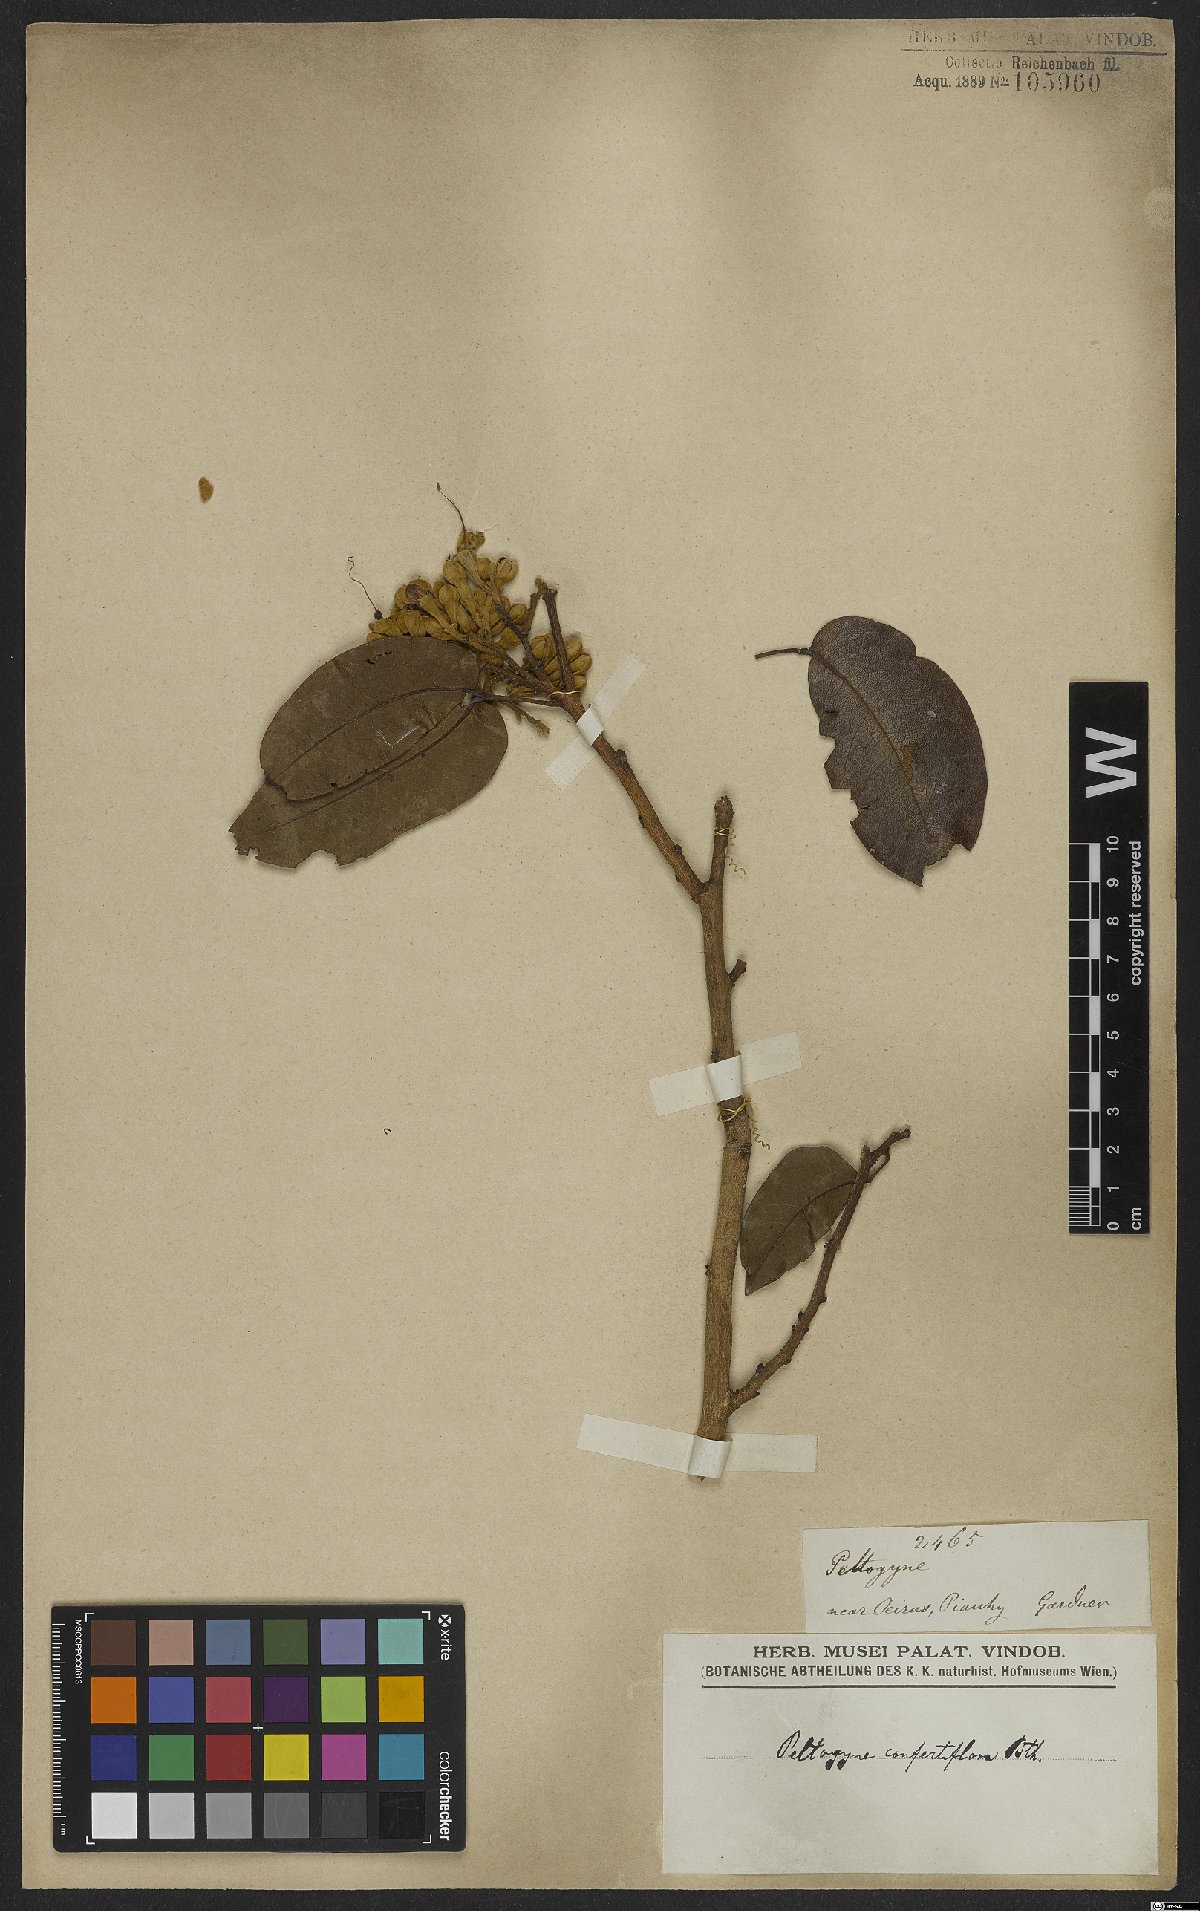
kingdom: Plantae
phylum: Tracheophyta
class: Magnoliopsida
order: Fabales
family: Fabaceae
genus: Peltogyne
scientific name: Peltogyne confertiflora
